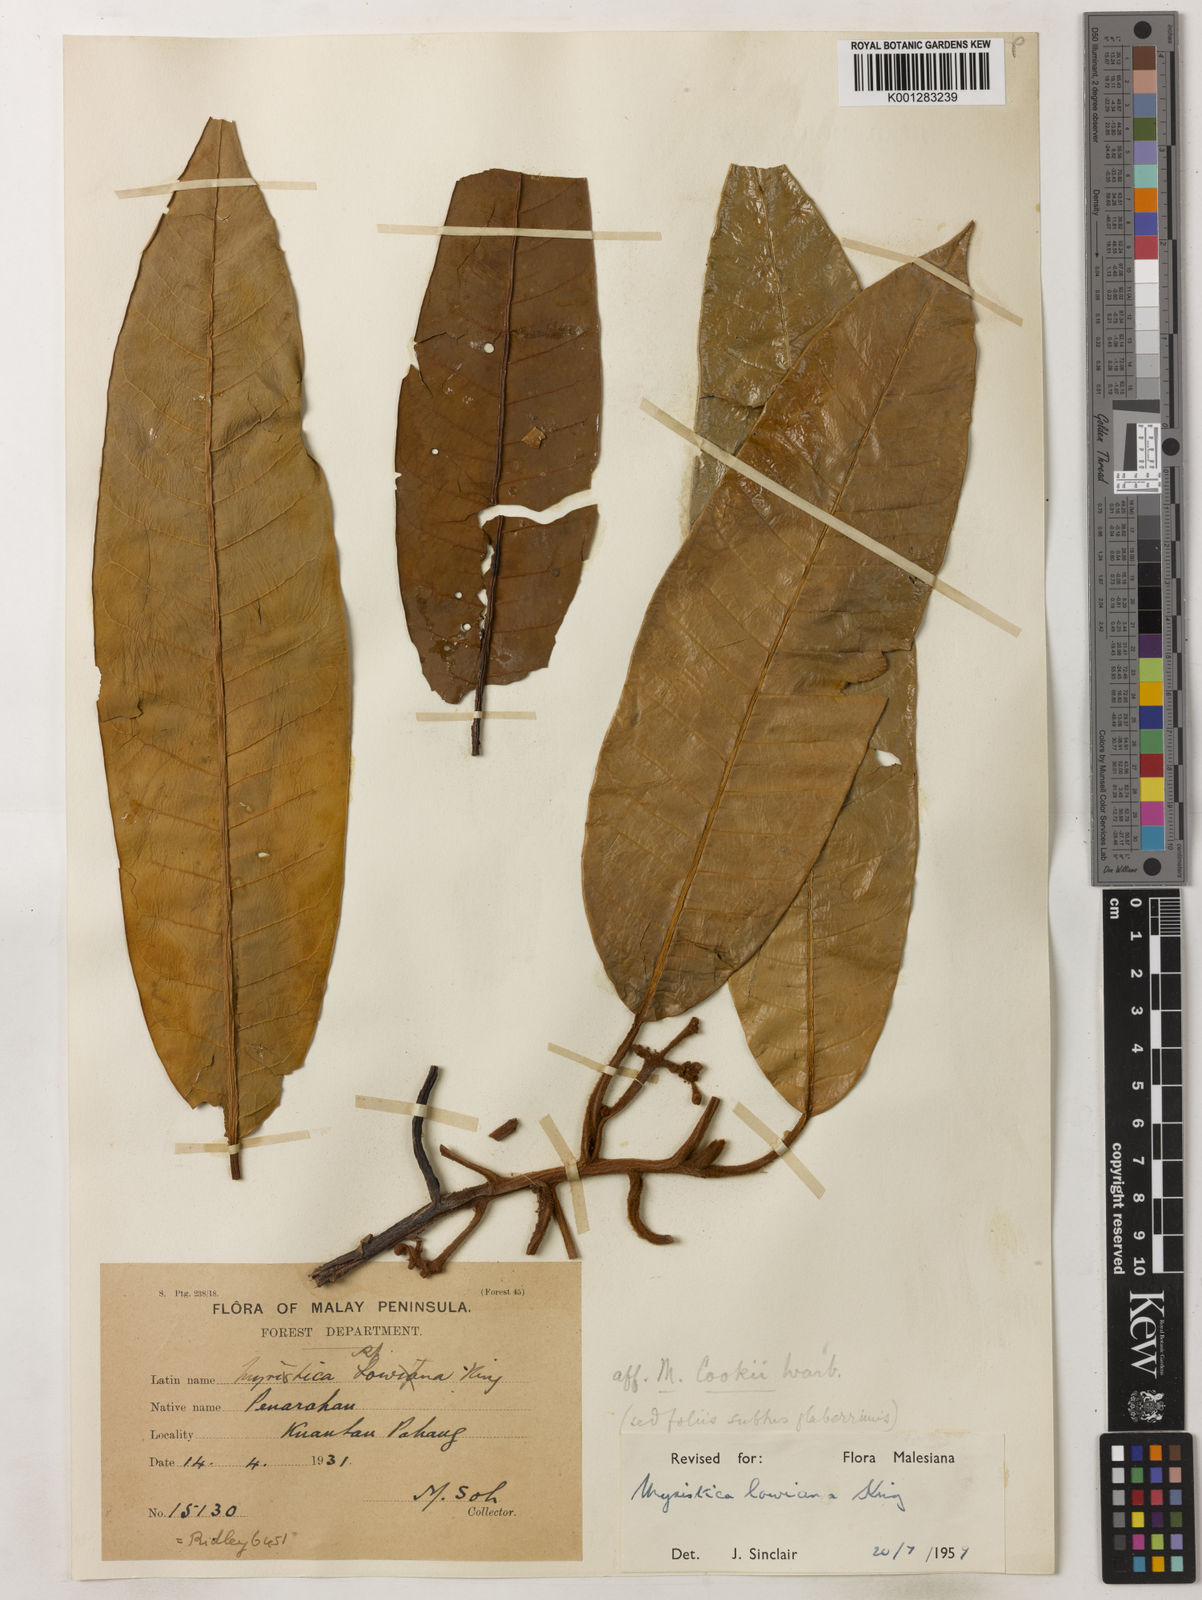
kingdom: Plantae
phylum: Tracheophyta
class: Magnoliopsida
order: Magnoliales
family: Myristicaceae
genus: Myristica
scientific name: Myristica lowiana
